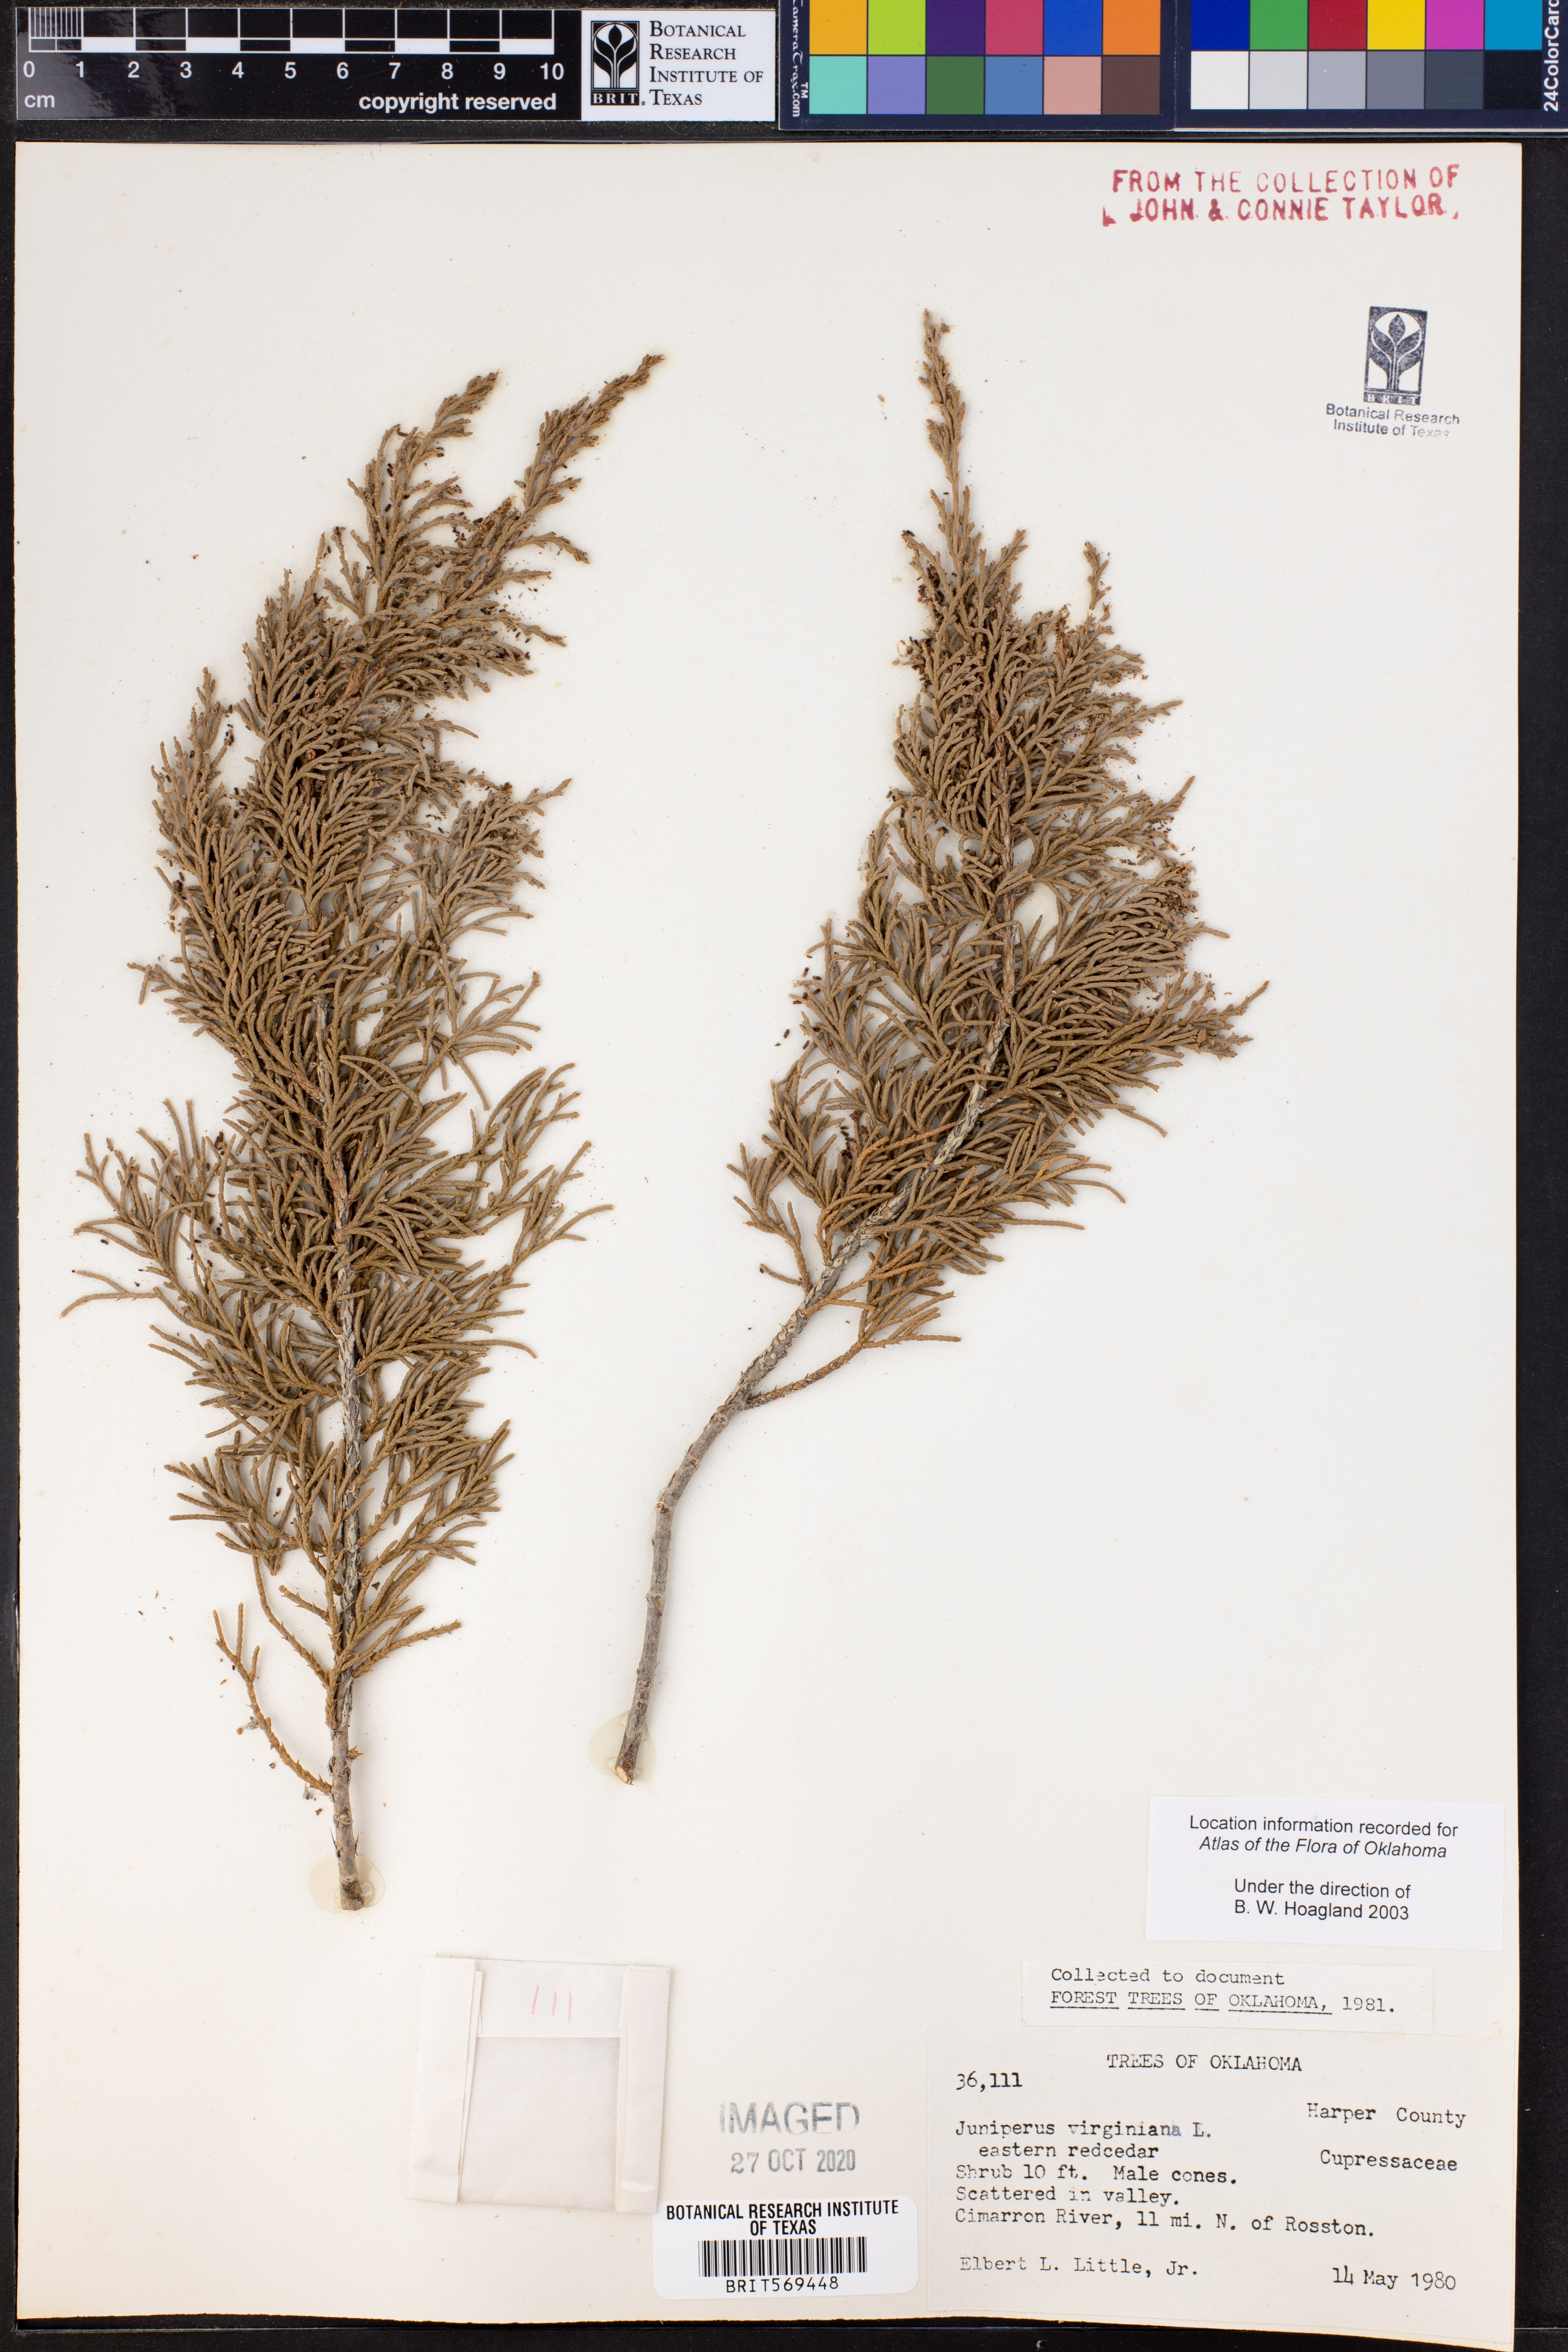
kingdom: Plantae
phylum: Tracheophyta
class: Pinopsida
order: Pinales
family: Cupressaceae
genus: Juniperus
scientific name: Juniperus virginiana
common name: Red juniper
